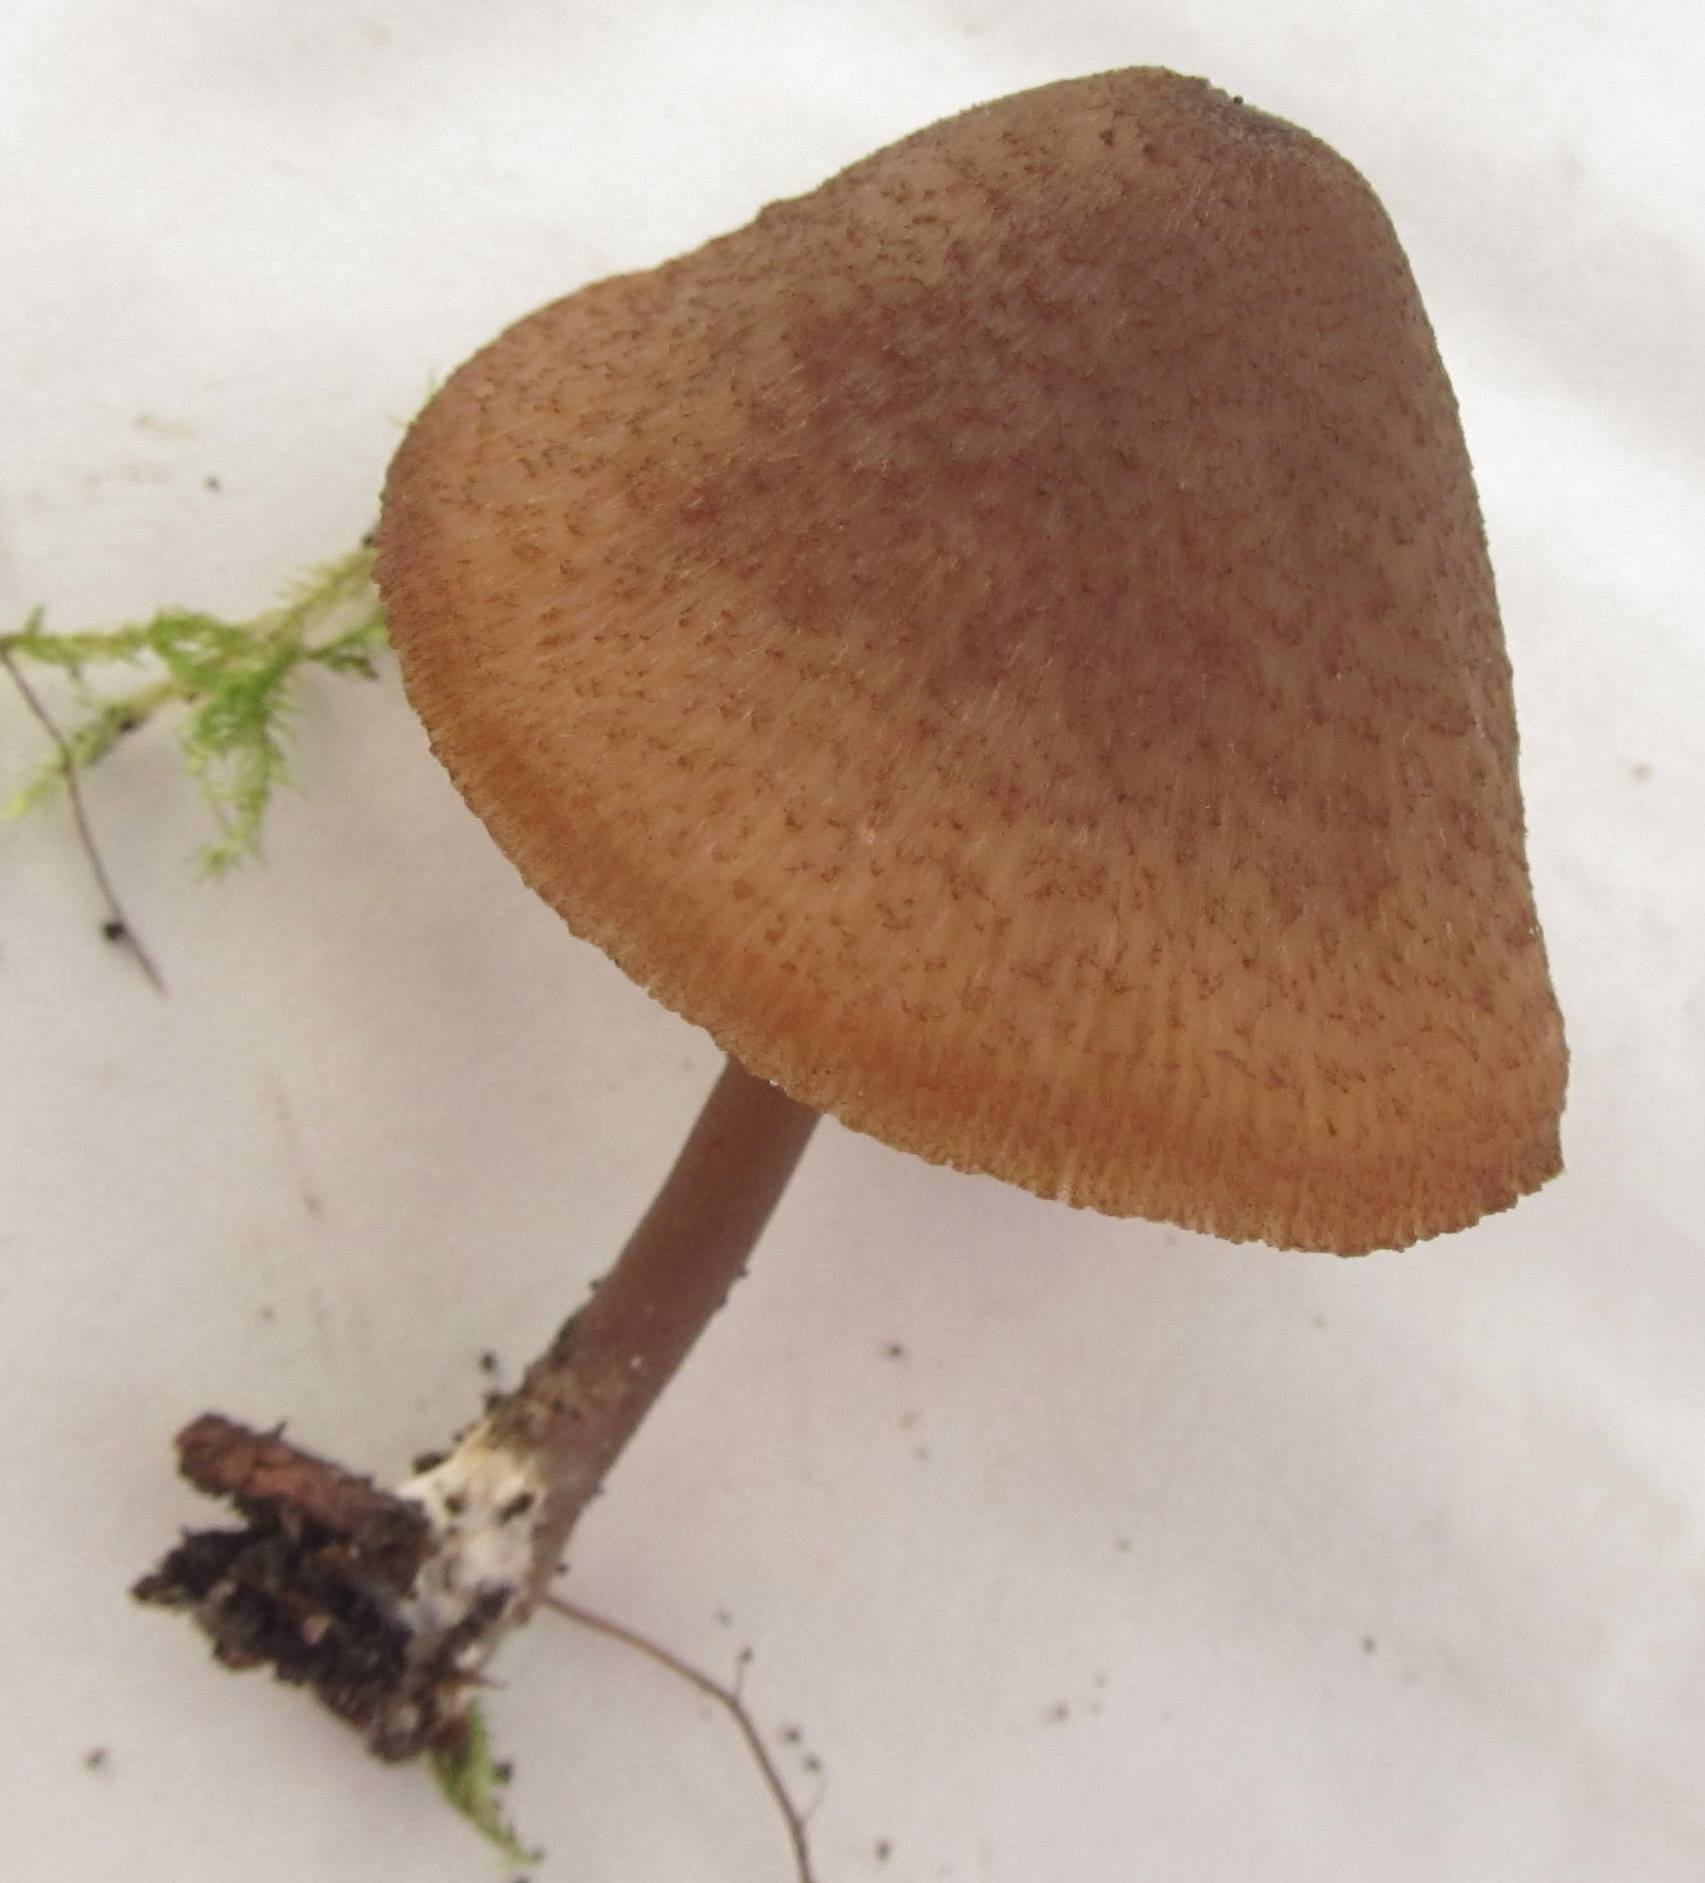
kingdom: Fungi
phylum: Basidiomycota
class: Agaricomycetes
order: Agaricales
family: Entolomataceae
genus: Entoloma
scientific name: Entoloma formosum
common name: brungul rødblad
